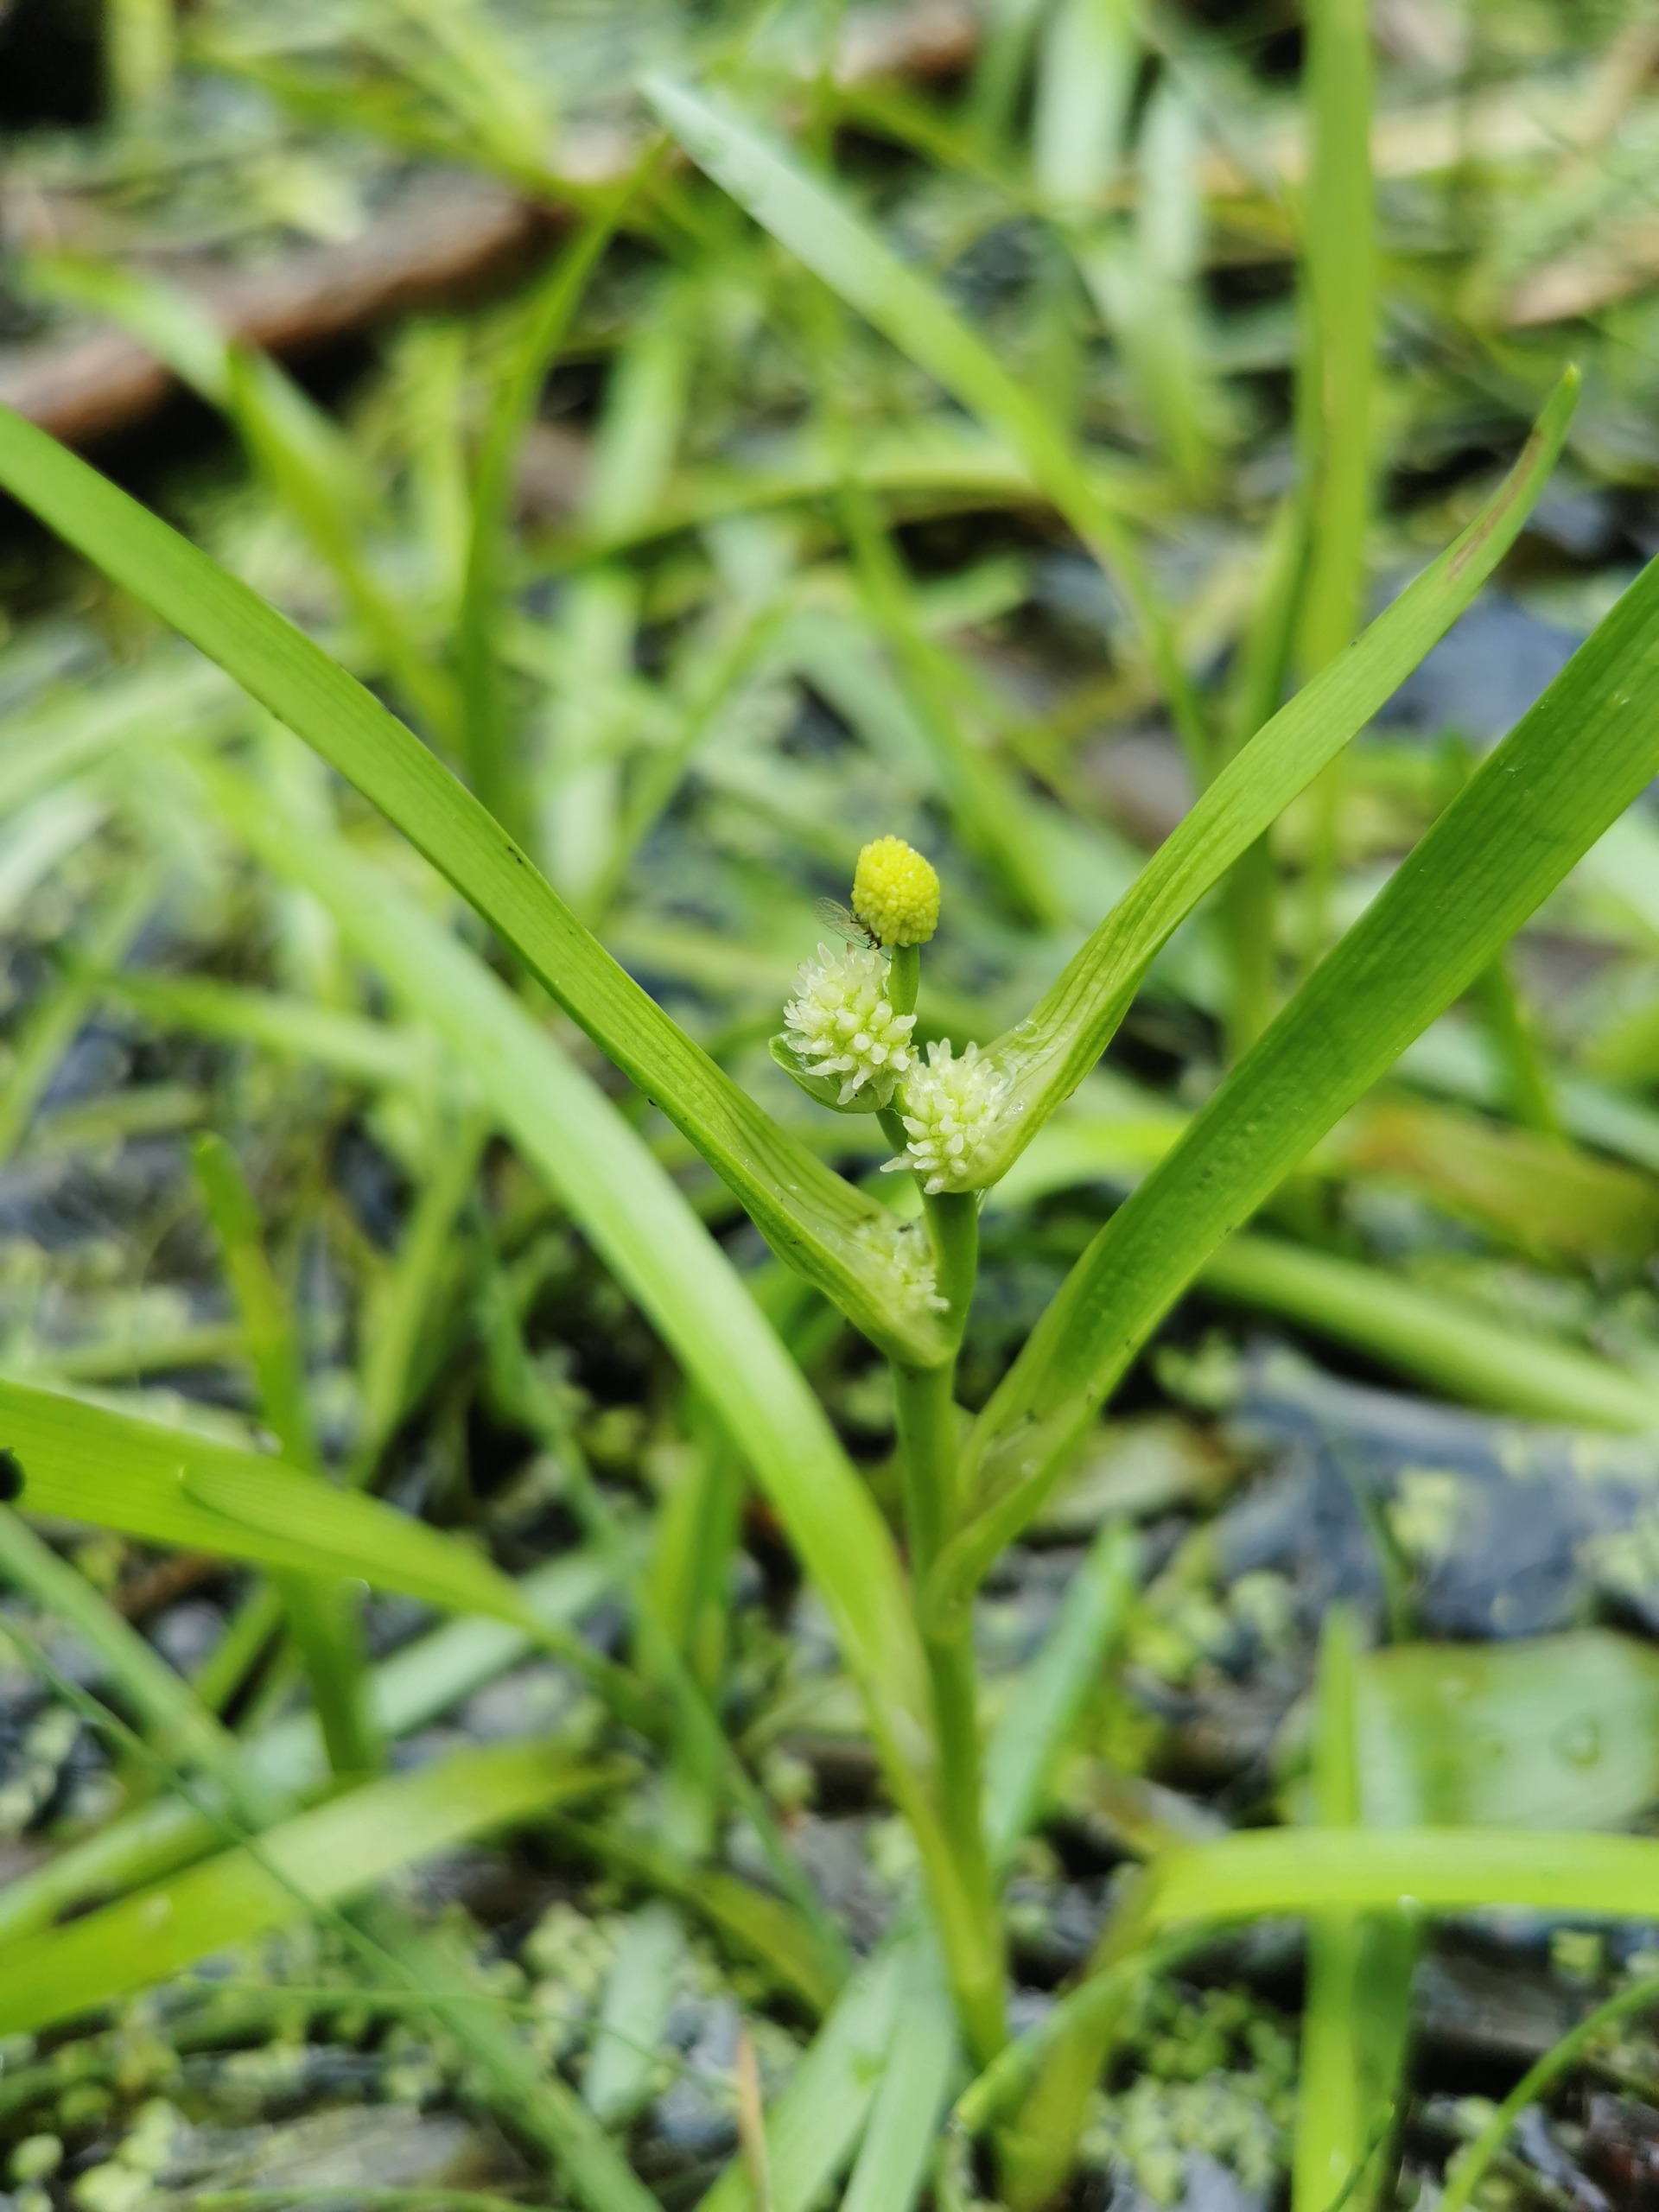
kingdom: Plantae
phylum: Tracheophyta
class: Liliopsida
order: Poales
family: Typhaceae
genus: Sparganium
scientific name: Sparganium natans
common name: Spæd pindsvineknop
